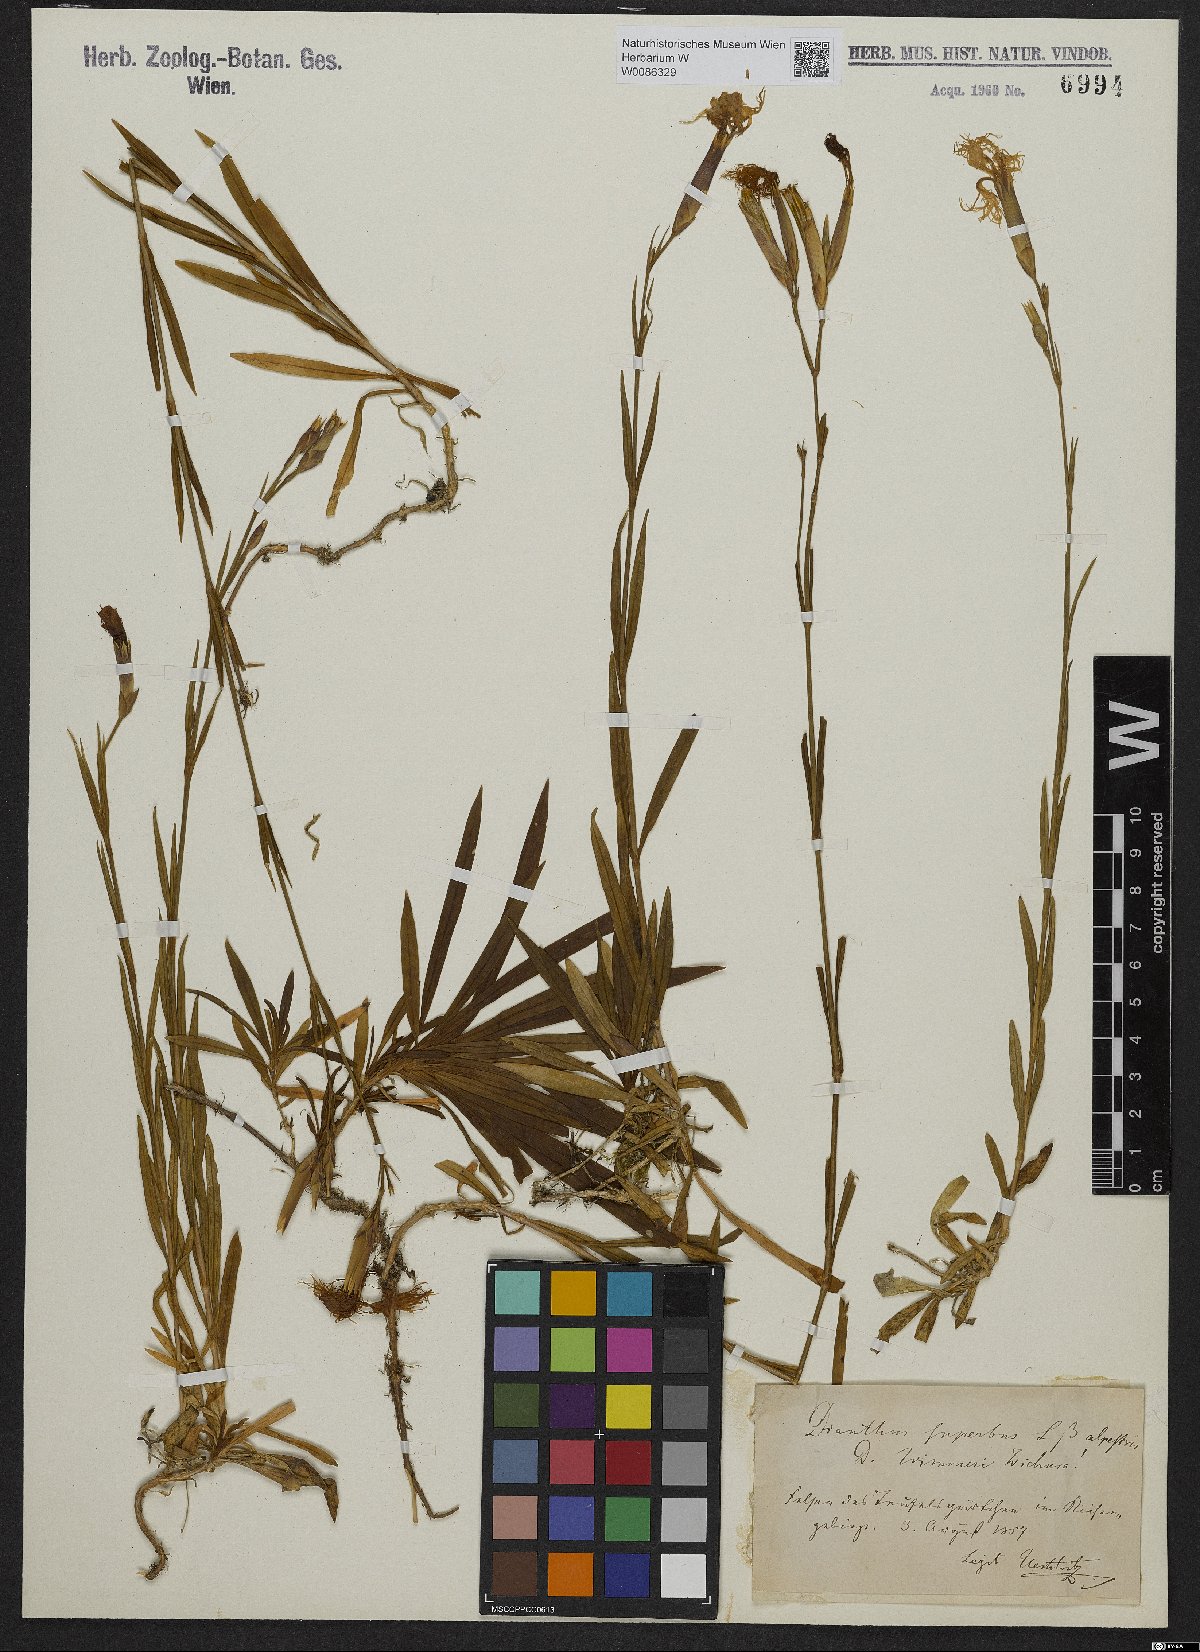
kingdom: Plantae
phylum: Tracheophyta
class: Magnoliopsida
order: Caryophyllales
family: Caryophyllaceae
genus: Dianthus
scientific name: Dianthus superbus
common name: Fringed pink
